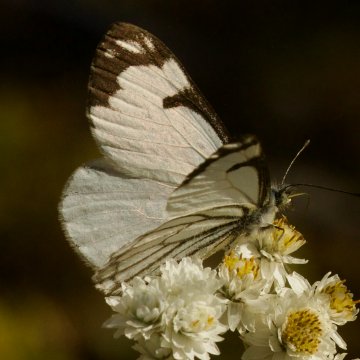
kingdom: Animalia
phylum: Arthropoda
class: Insecta
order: Lepidoptera
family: Pieridae
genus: Neophasia
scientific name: Neophasia menapia
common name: Pine White
